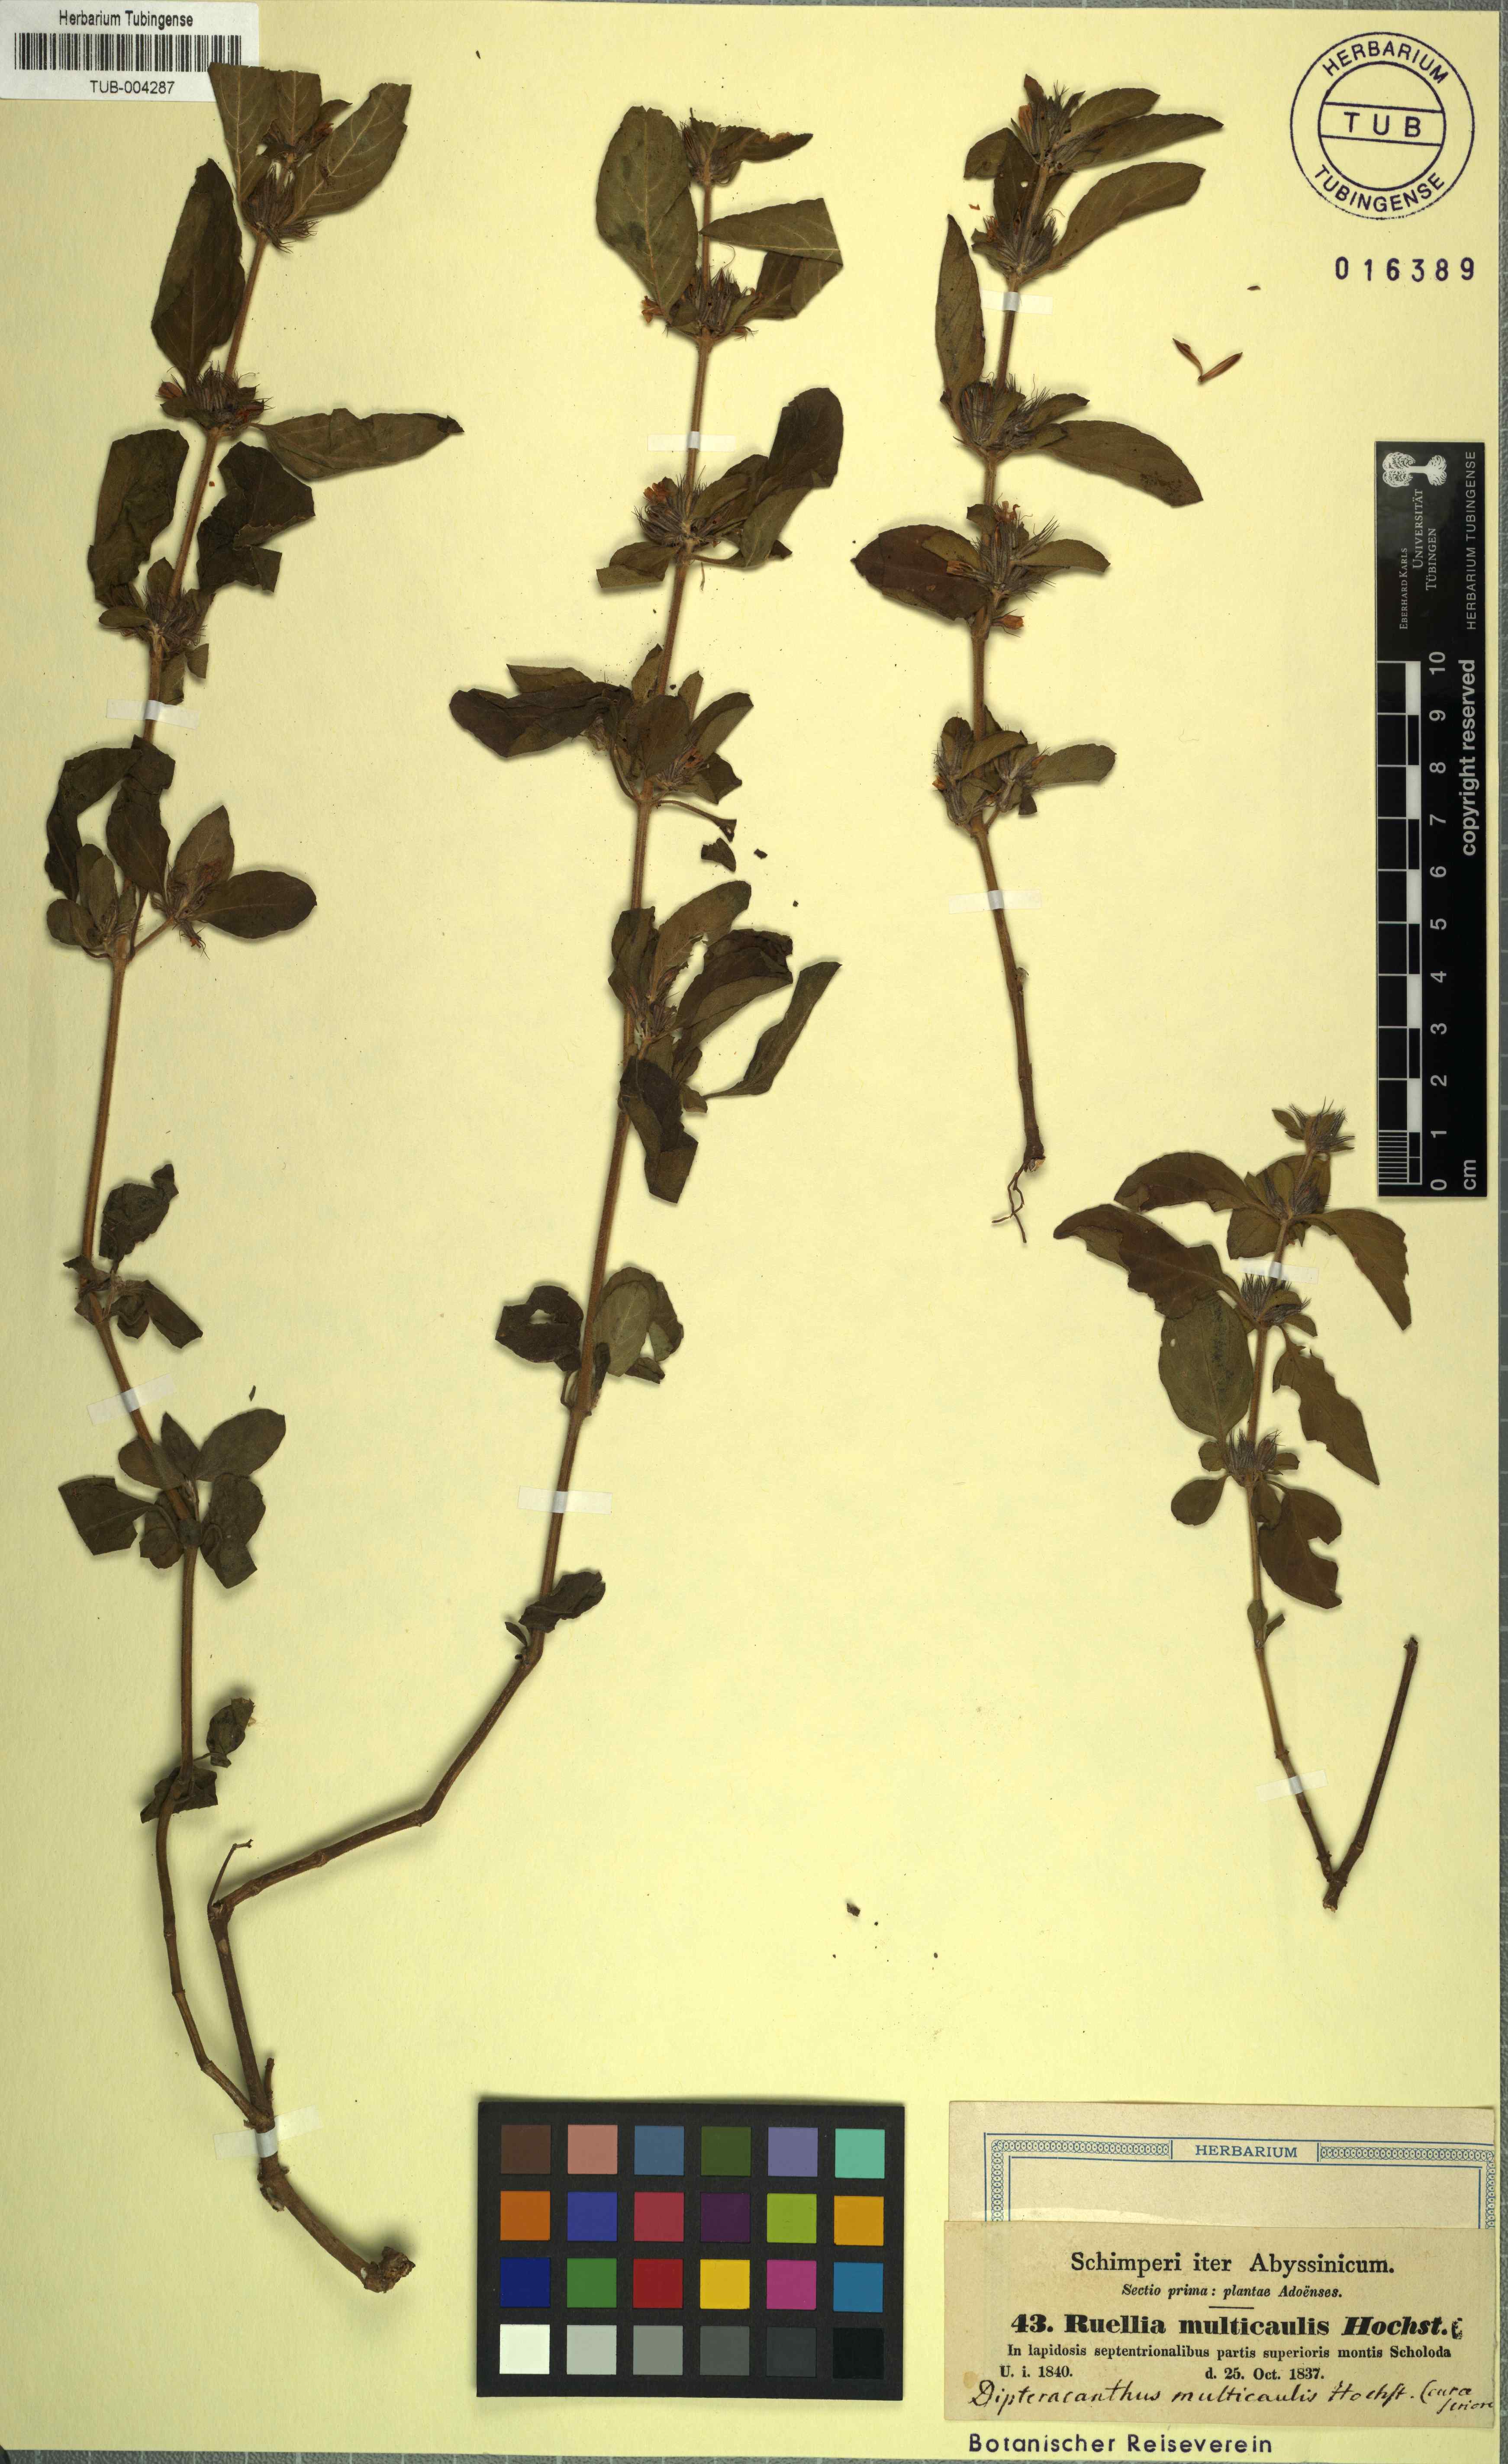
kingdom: Plantae
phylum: Tracheophyta
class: Magnoliopsida
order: Lamiales
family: Acanthaceae
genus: Dyschoriste
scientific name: Dyschoriste multicaulis
